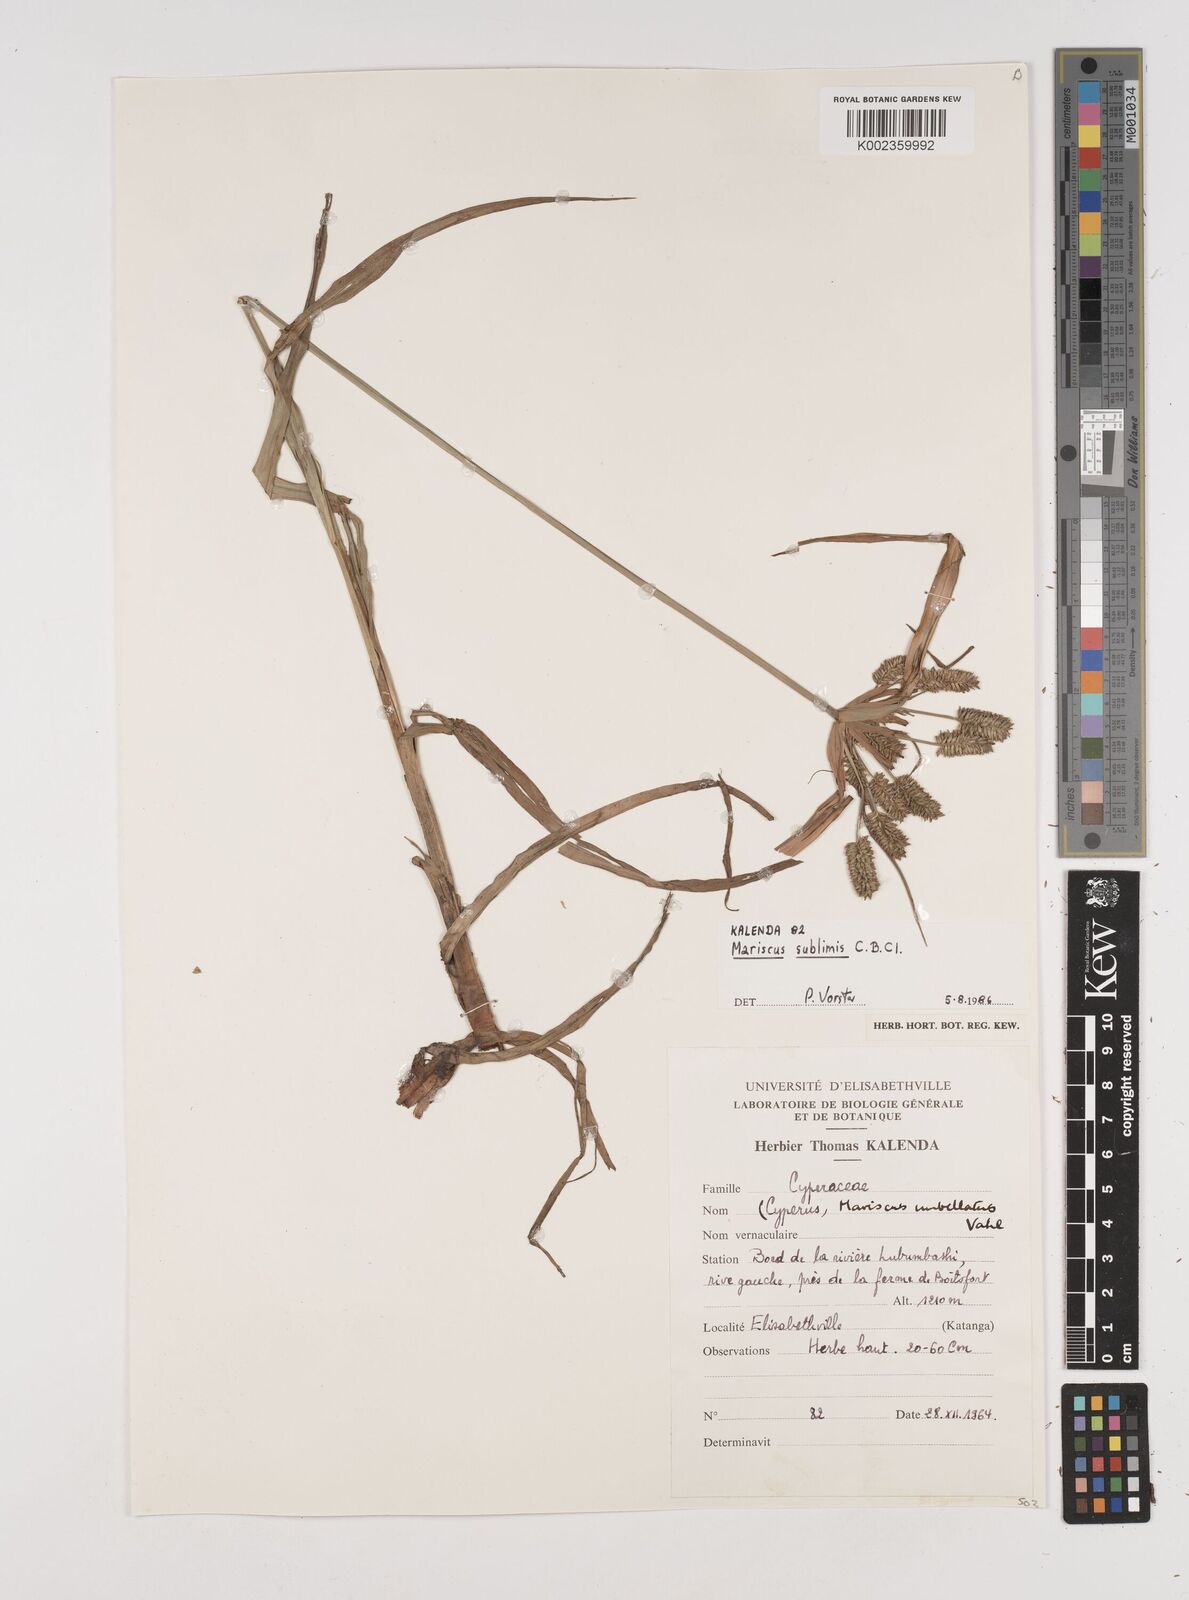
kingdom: Plantae
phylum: Tracheophyta
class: Liliopsida
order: Poales
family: Cyperaceae
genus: Cyperus
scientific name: Cyperus cyperoides
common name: Pacific island flat sedge
